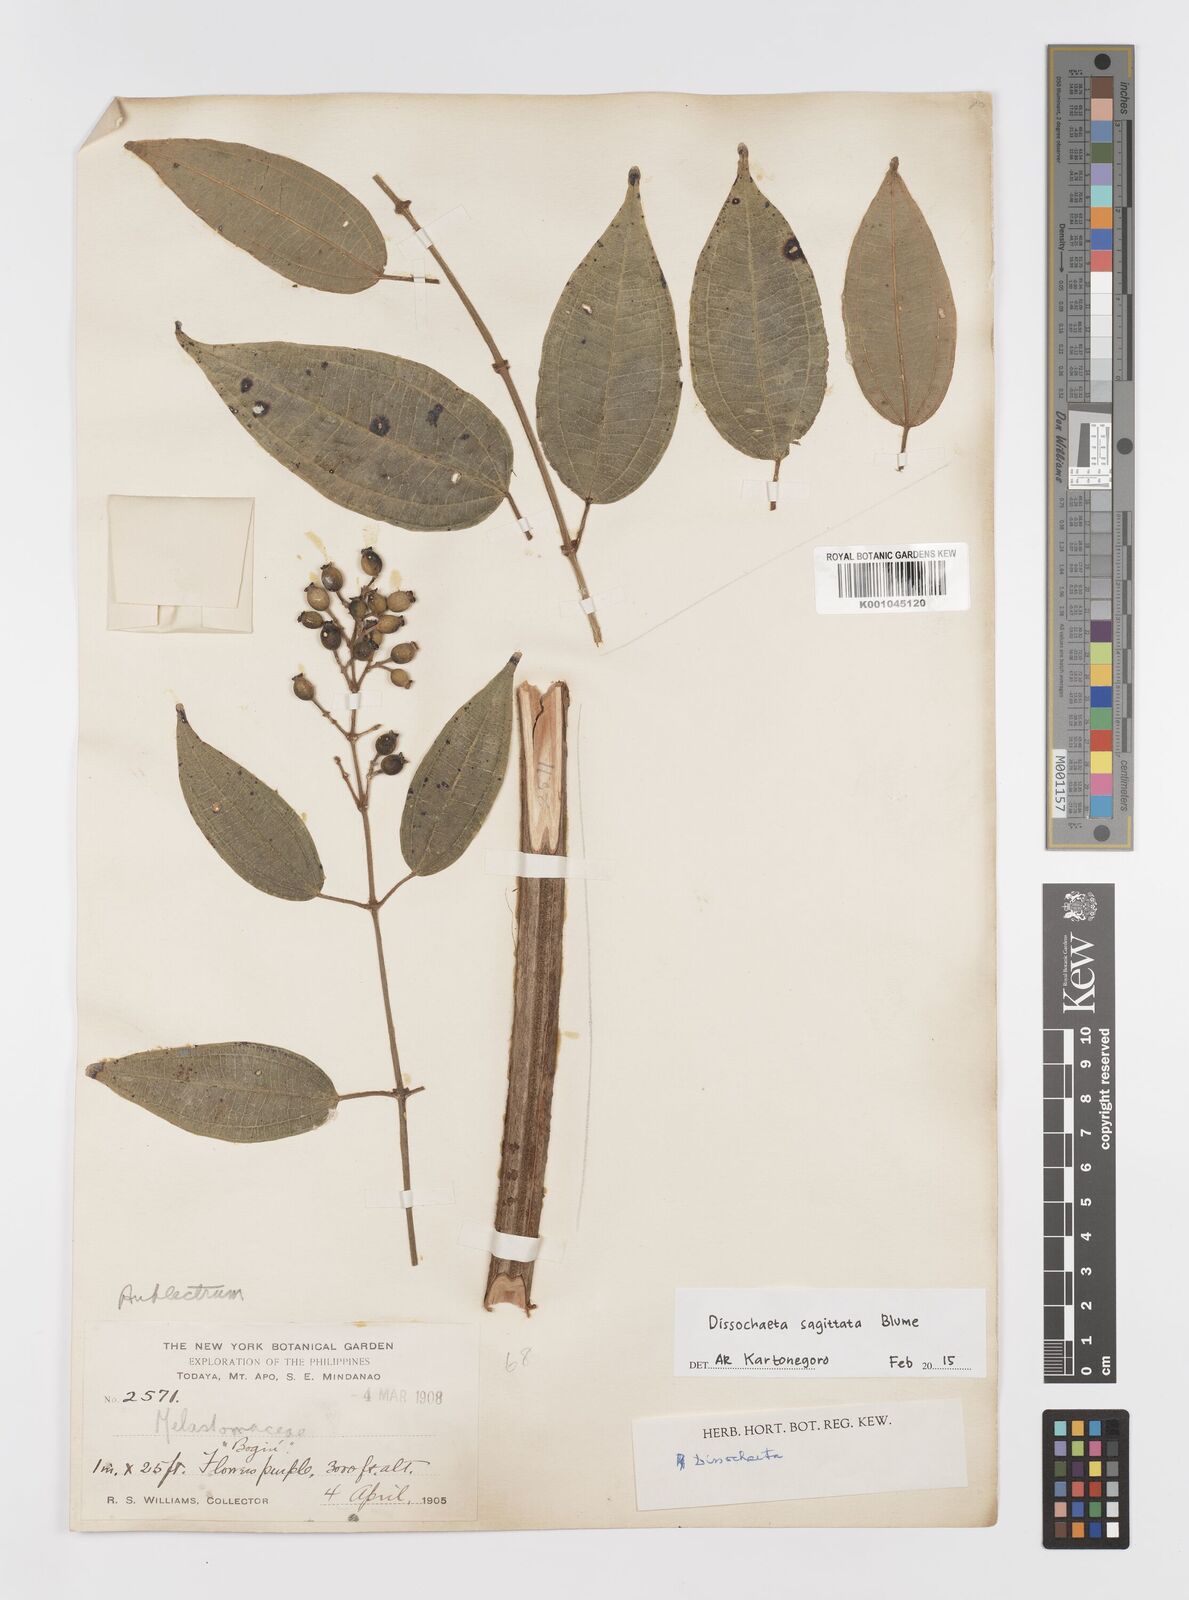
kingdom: Plantae
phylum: Tracheophyta
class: Magnoliopsida
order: Myrtales
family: Melastomataceae
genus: Dissochaeta
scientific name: Dissochaeta sagittata
